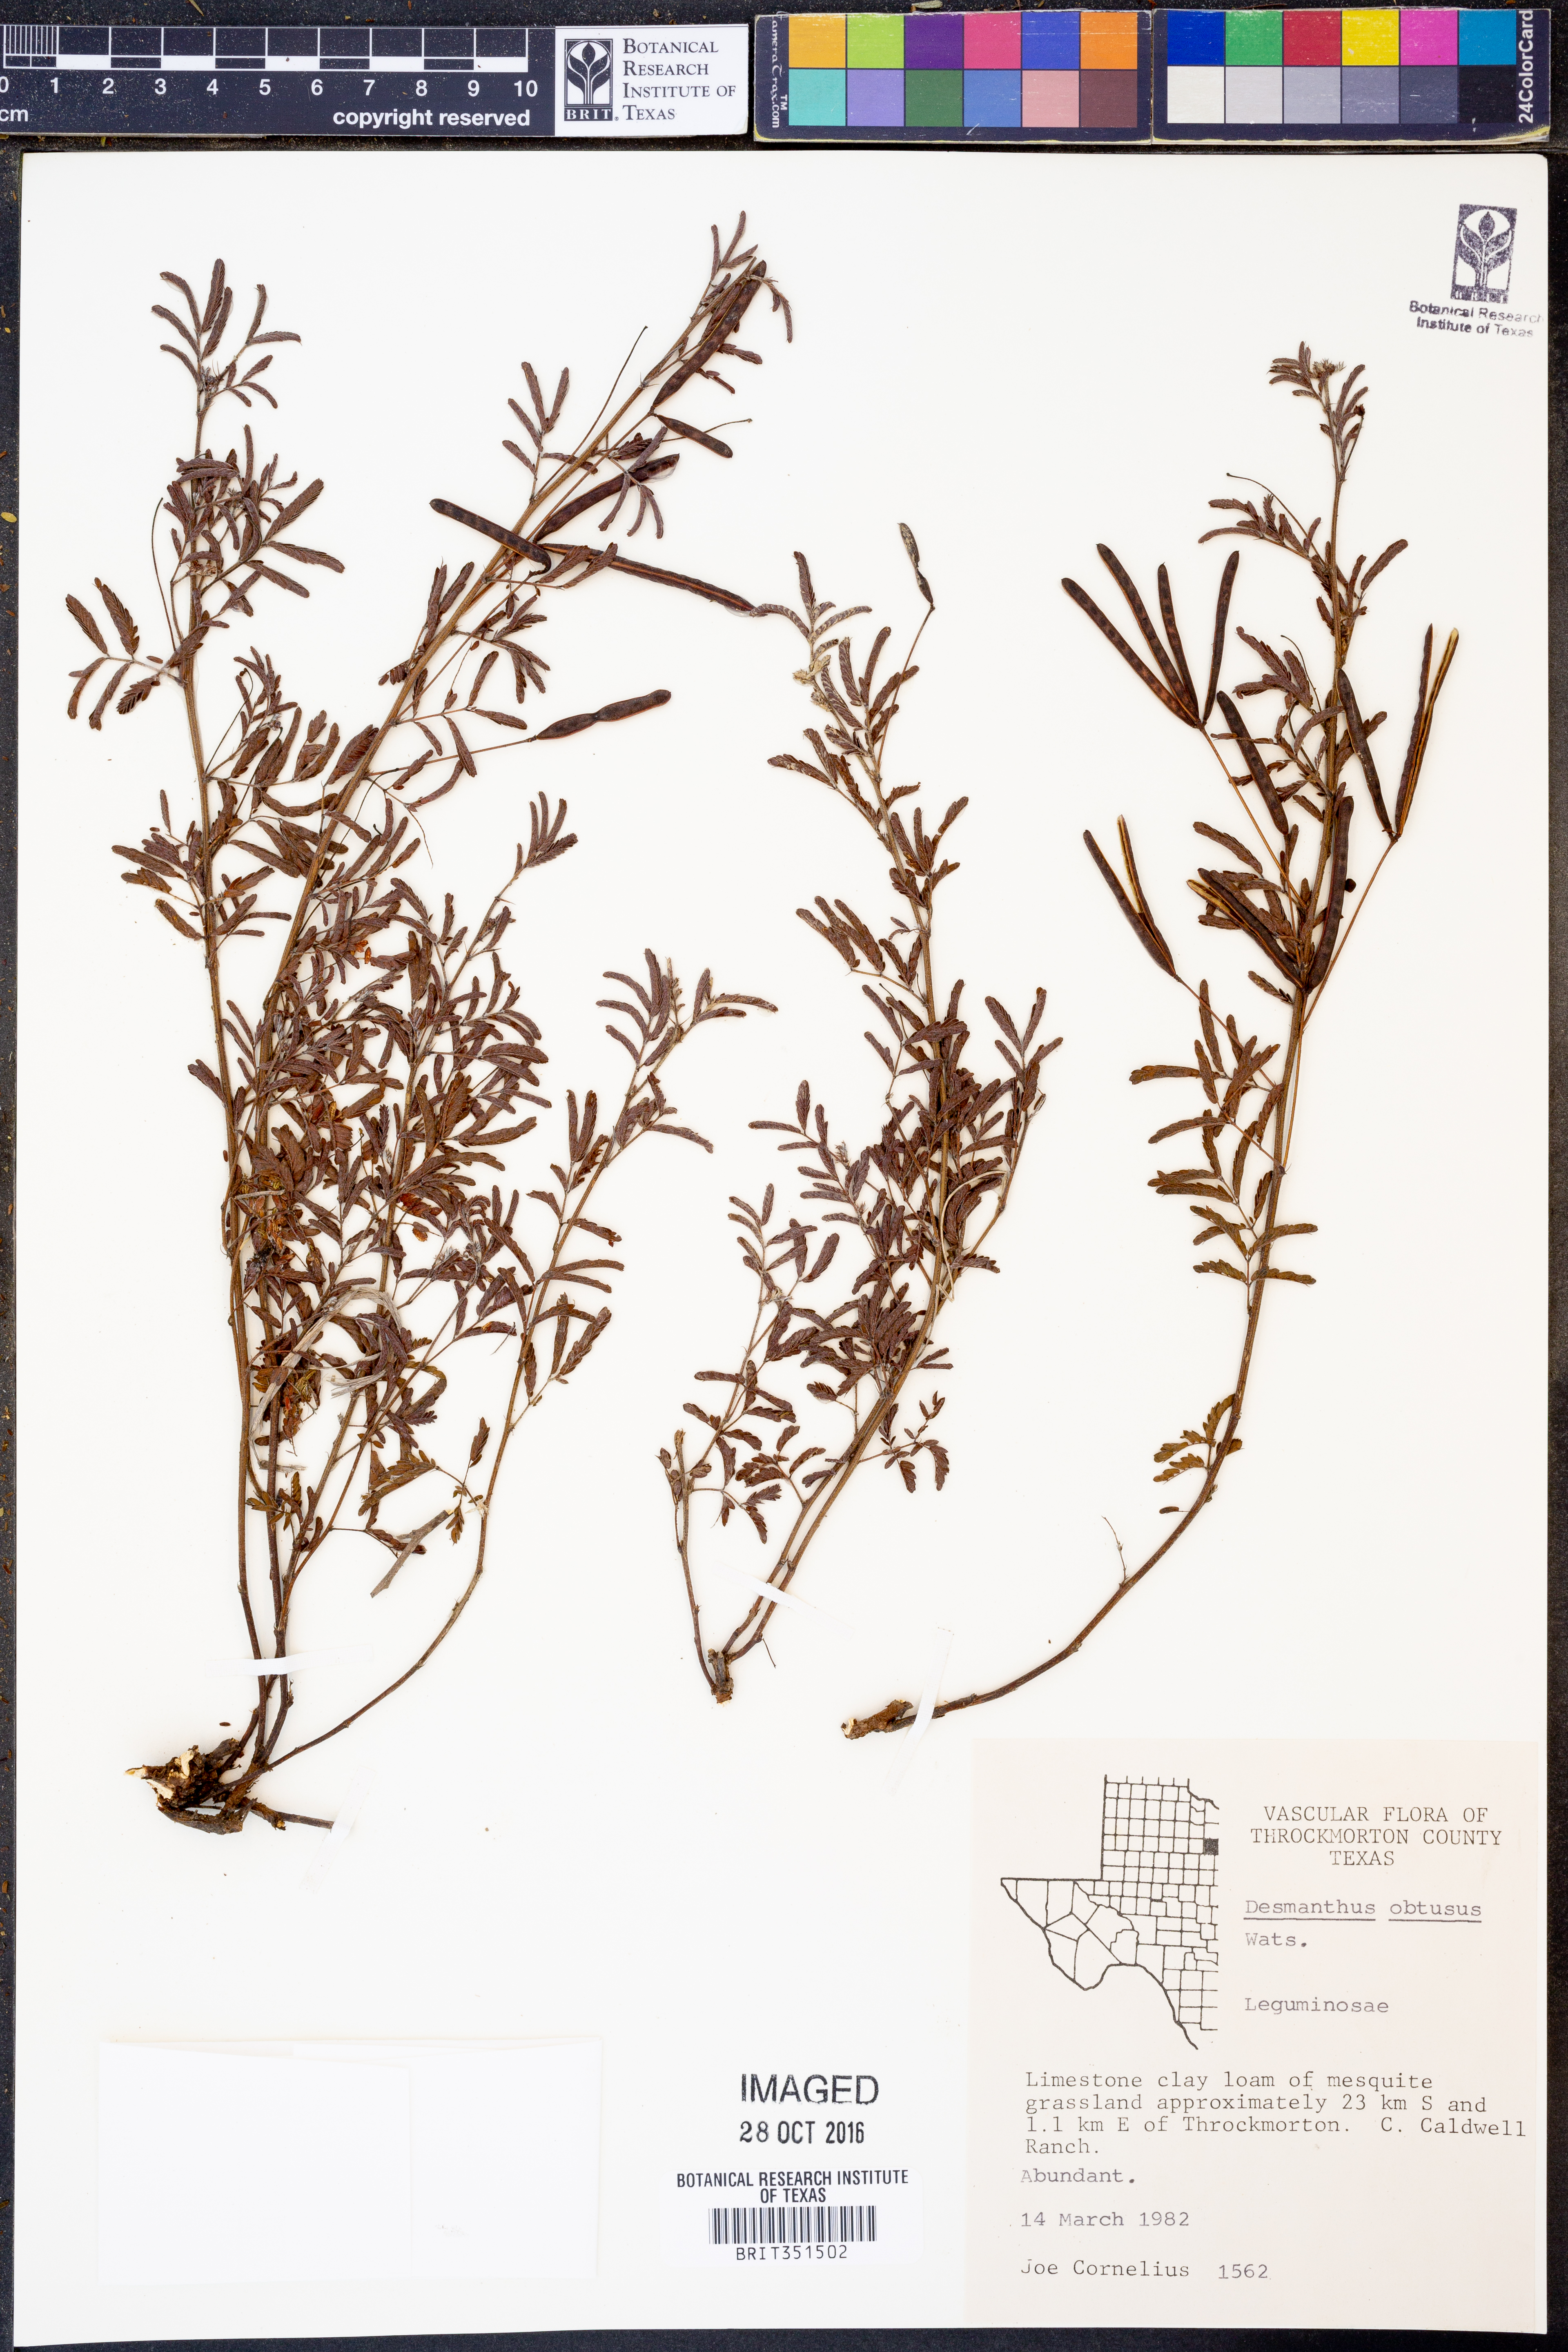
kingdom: Plantae
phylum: Tracheophyta
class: Magnoliopsida
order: Fabales
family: Fabaceae
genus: Desmanthus
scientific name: Desmanthus obtusus
